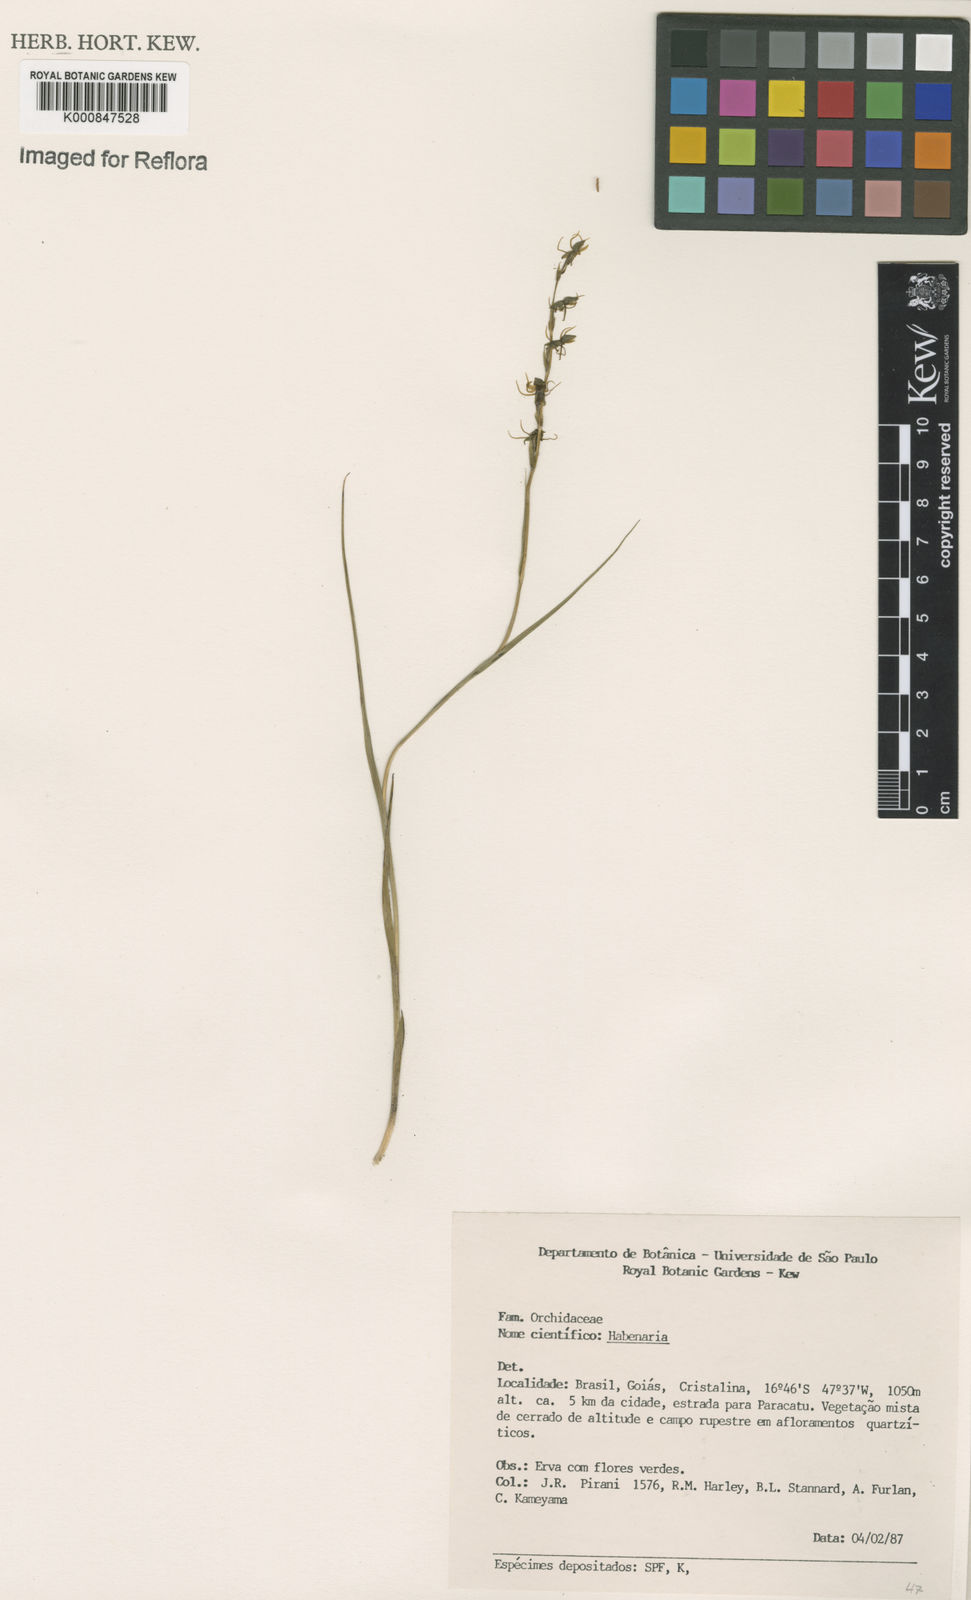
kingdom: Plantae
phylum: Tracheophyta
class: Liliopsida
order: Asparagales
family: Orchidaceae
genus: Habenaria
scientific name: Habenaria
